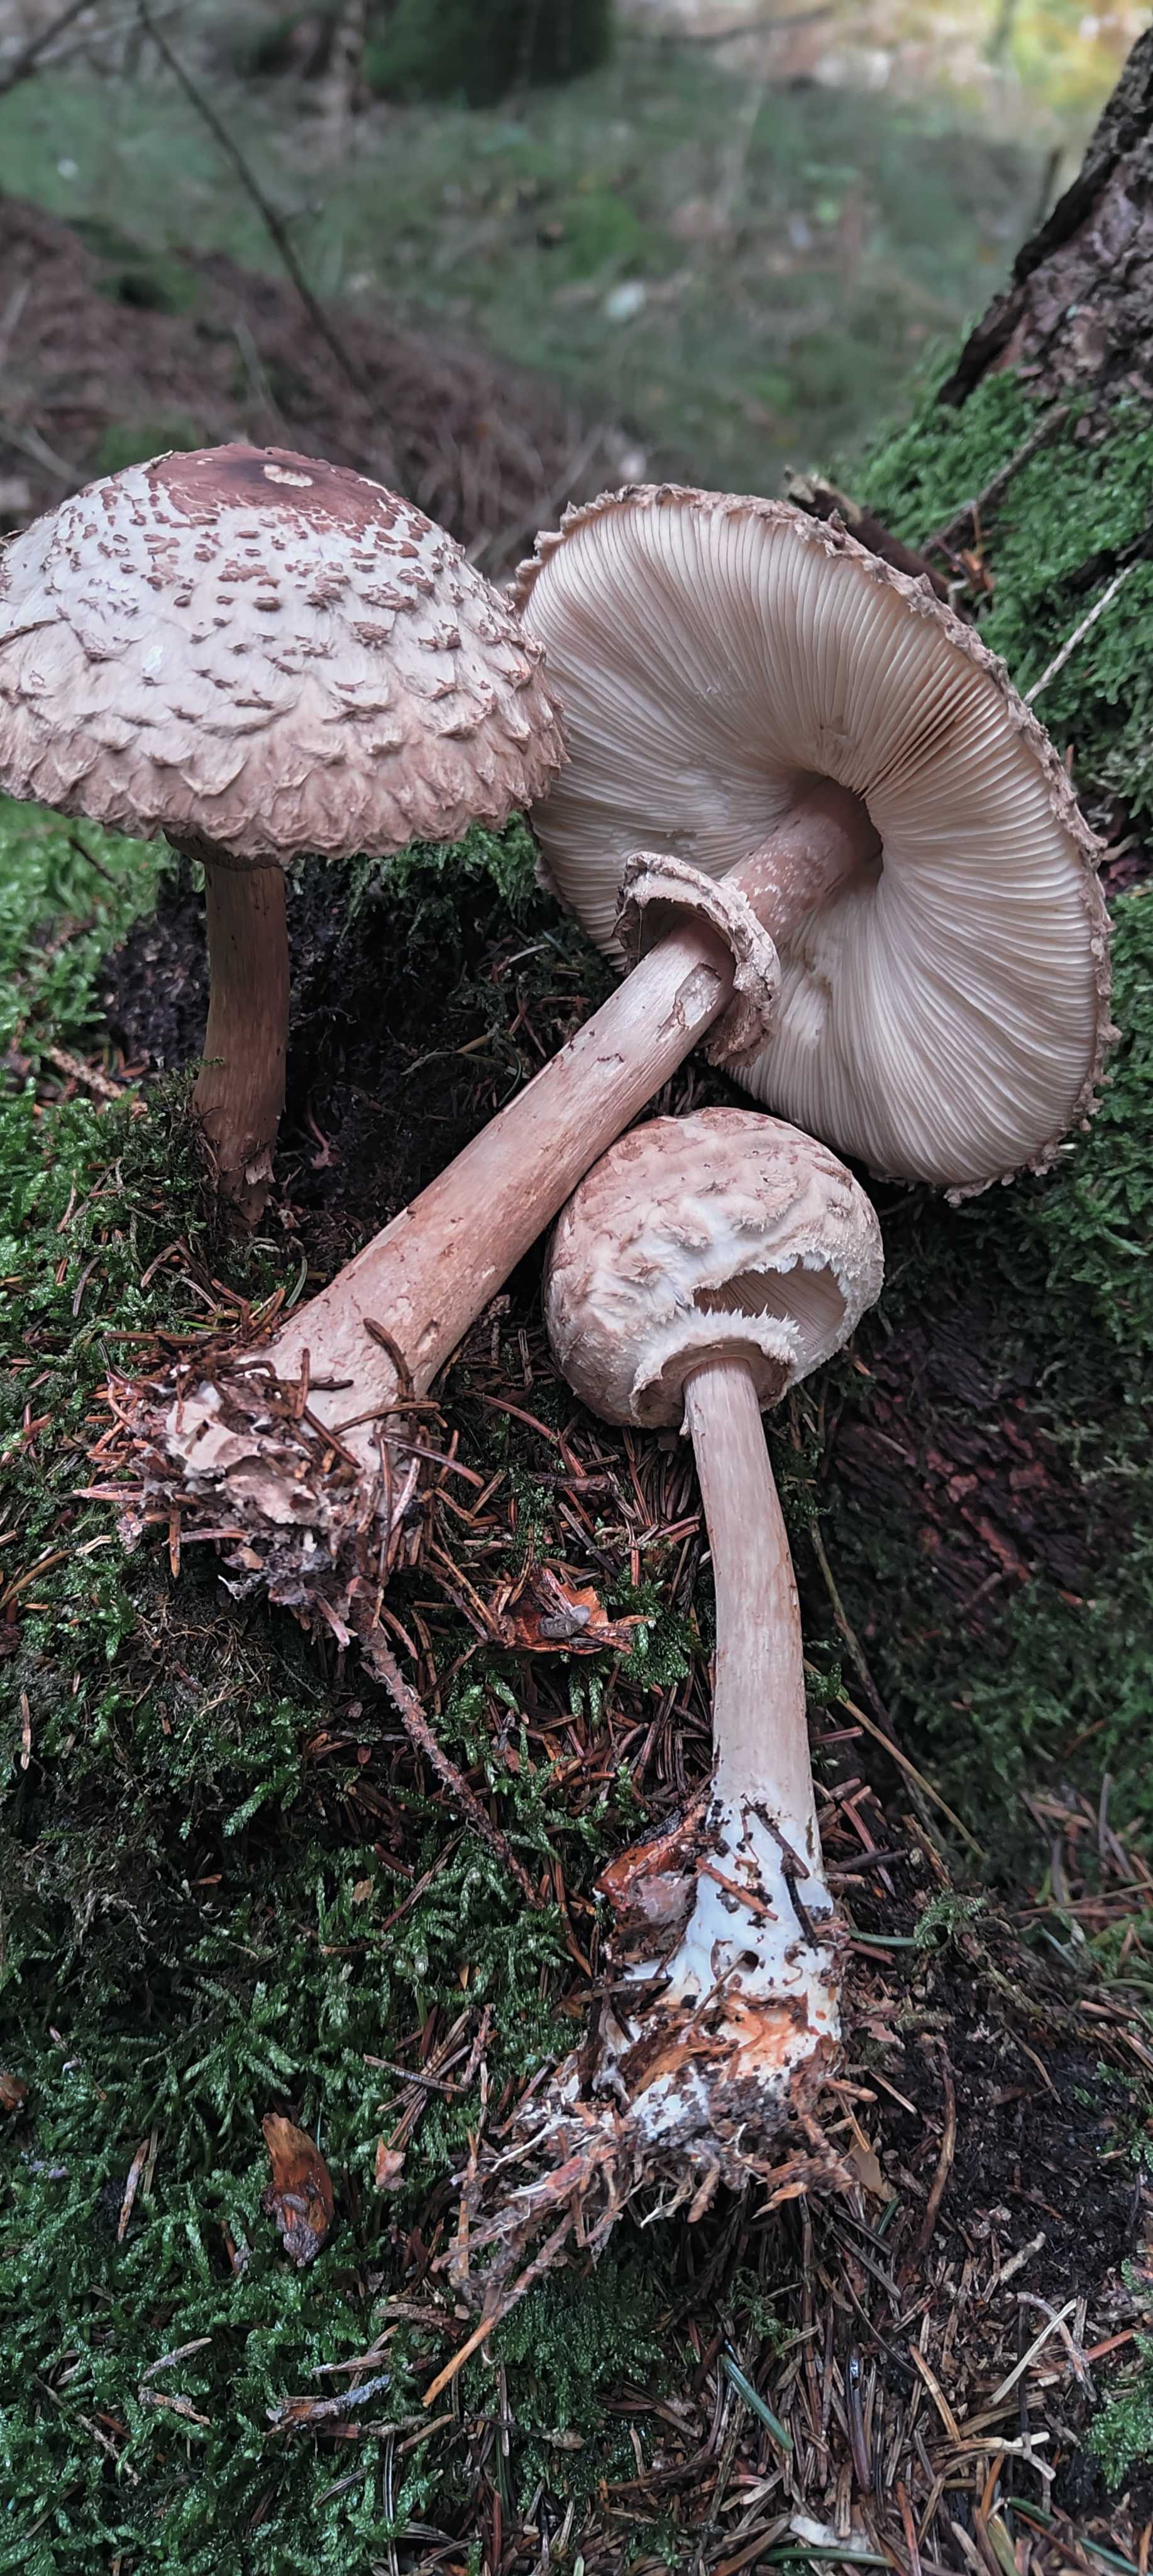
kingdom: Fungi
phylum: Basidiomycota
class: Agaricomycetes
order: Agaricales
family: Agaricaceae
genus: Chlorophyllum
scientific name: Chlorophyllum olivieri
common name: almindelig rabarberhat
